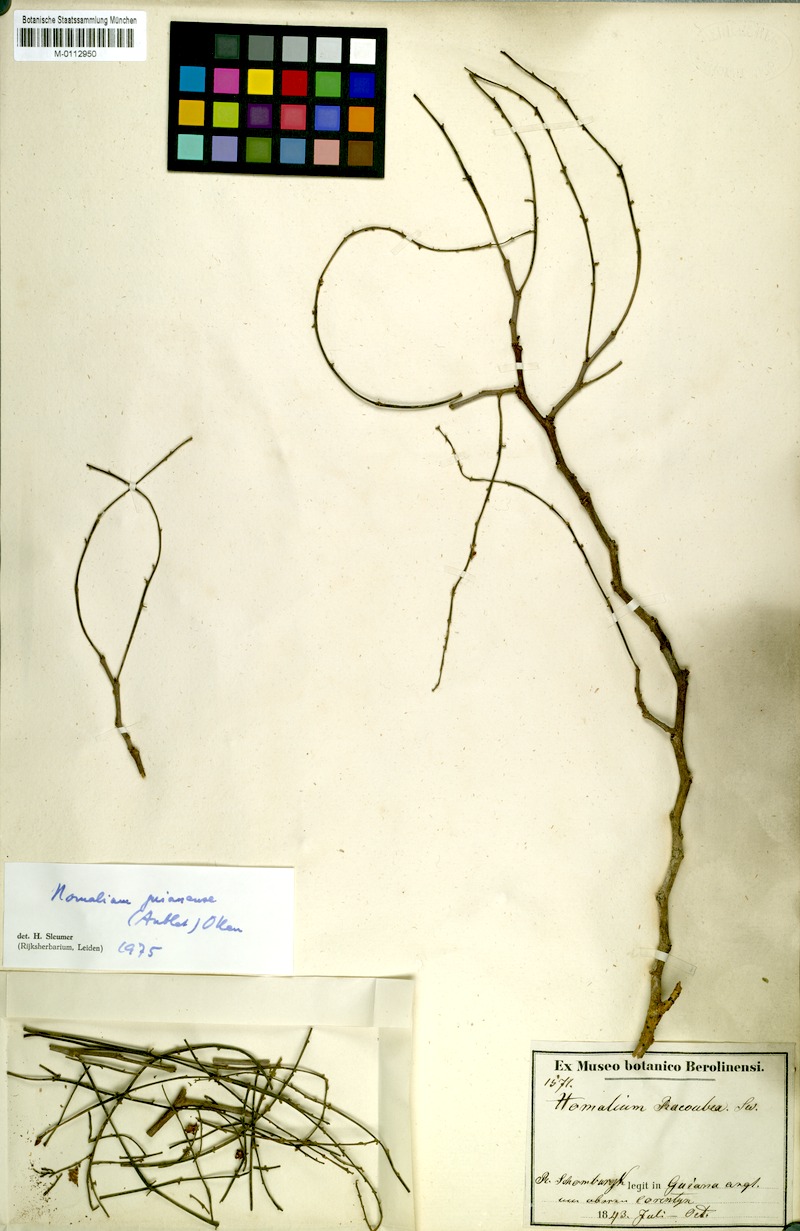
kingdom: Plantae
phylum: Tracheophyta
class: Magnoliopsida
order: Malpighiales
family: Salicaceae
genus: Homalium
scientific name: Homalium guianense
